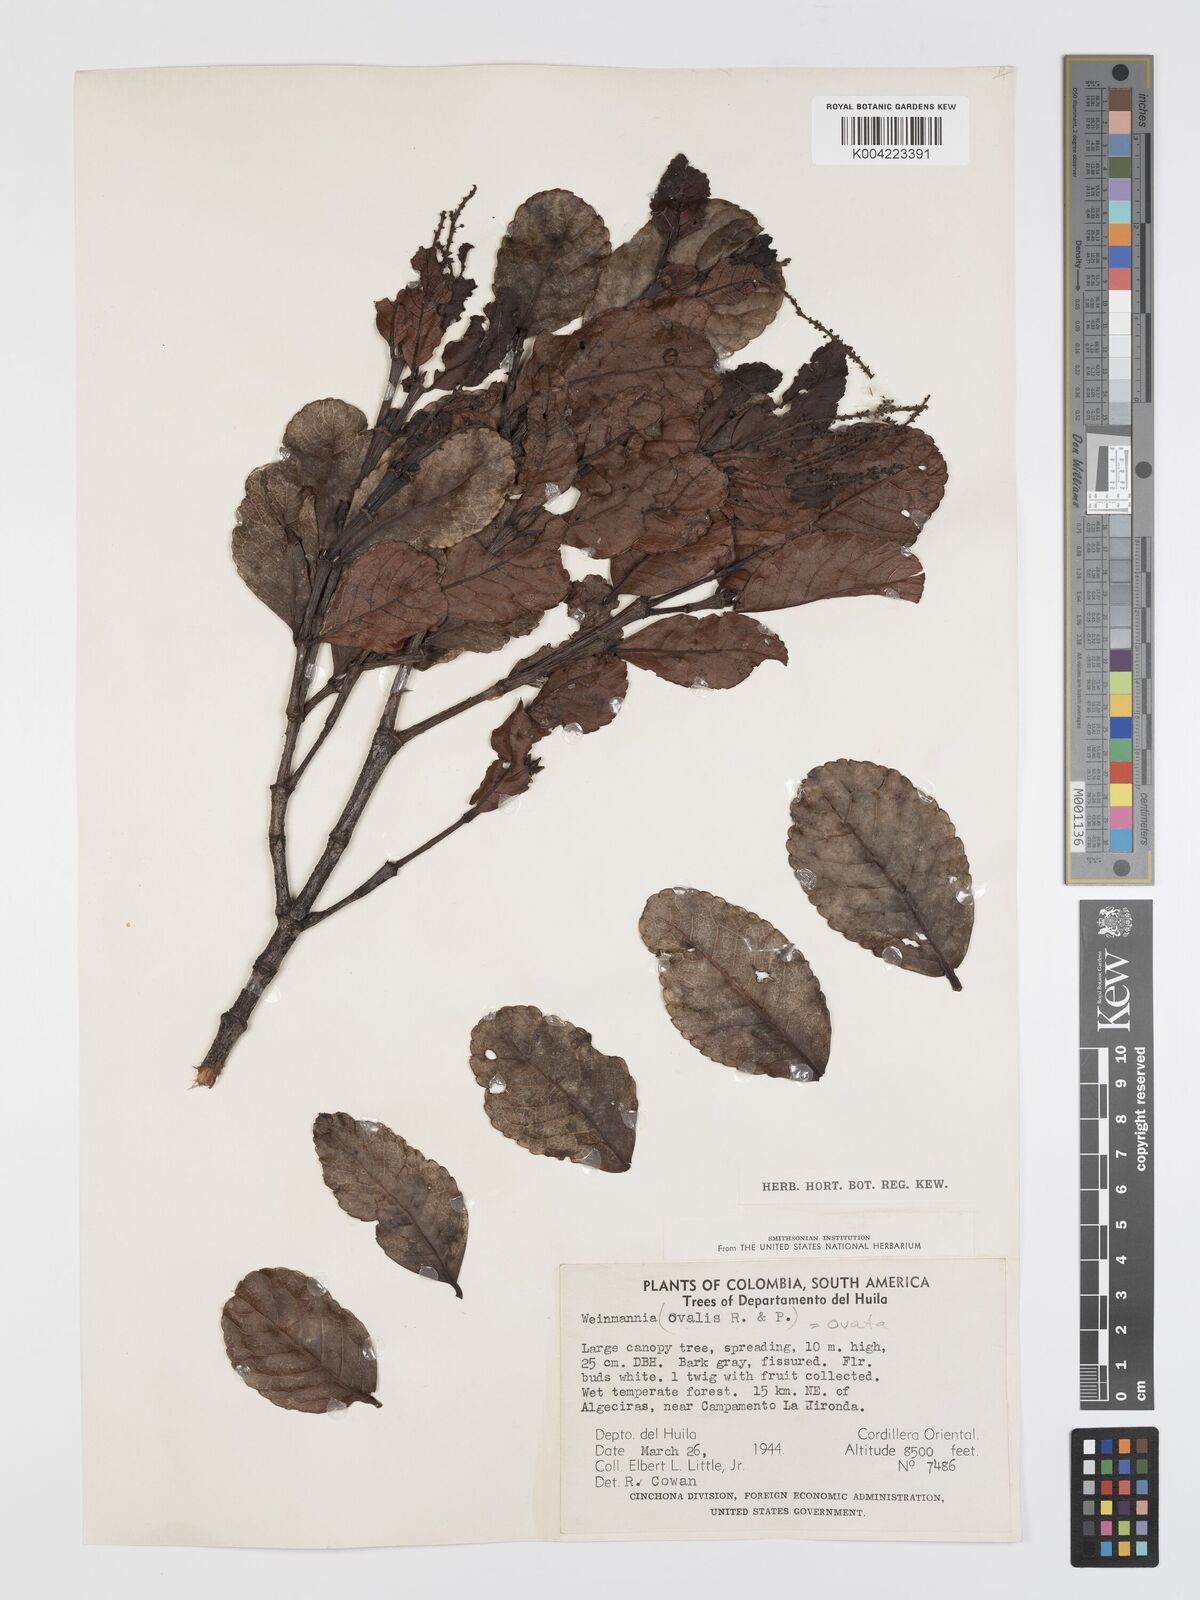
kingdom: Plantae
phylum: Tracheophyta
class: Magnoliopsida
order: Oxalidales
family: Cunoniaceae
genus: Weinmannia
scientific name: Weinmannia ovata
